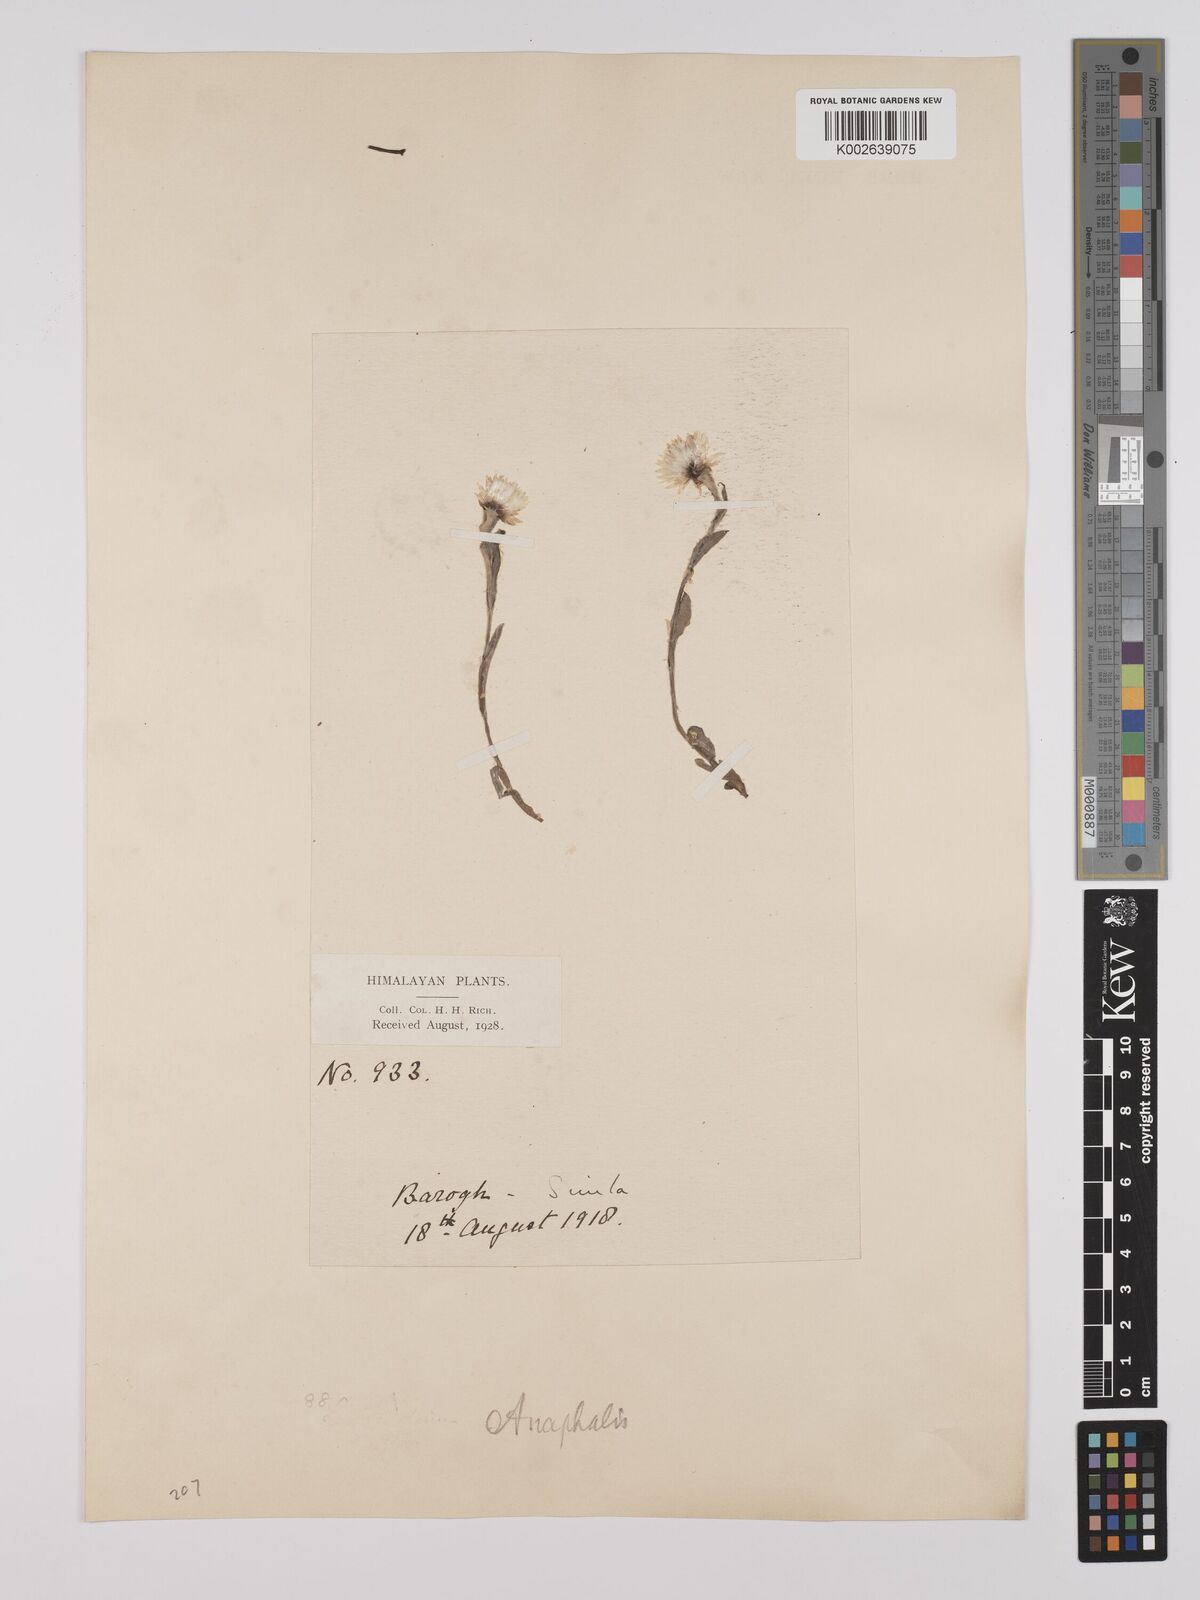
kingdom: Plantae
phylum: Tracheophyta
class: Magnoliopsida
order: Asterales
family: Asteraceae
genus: Anaphalis
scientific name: Anaphalis nepalensis
